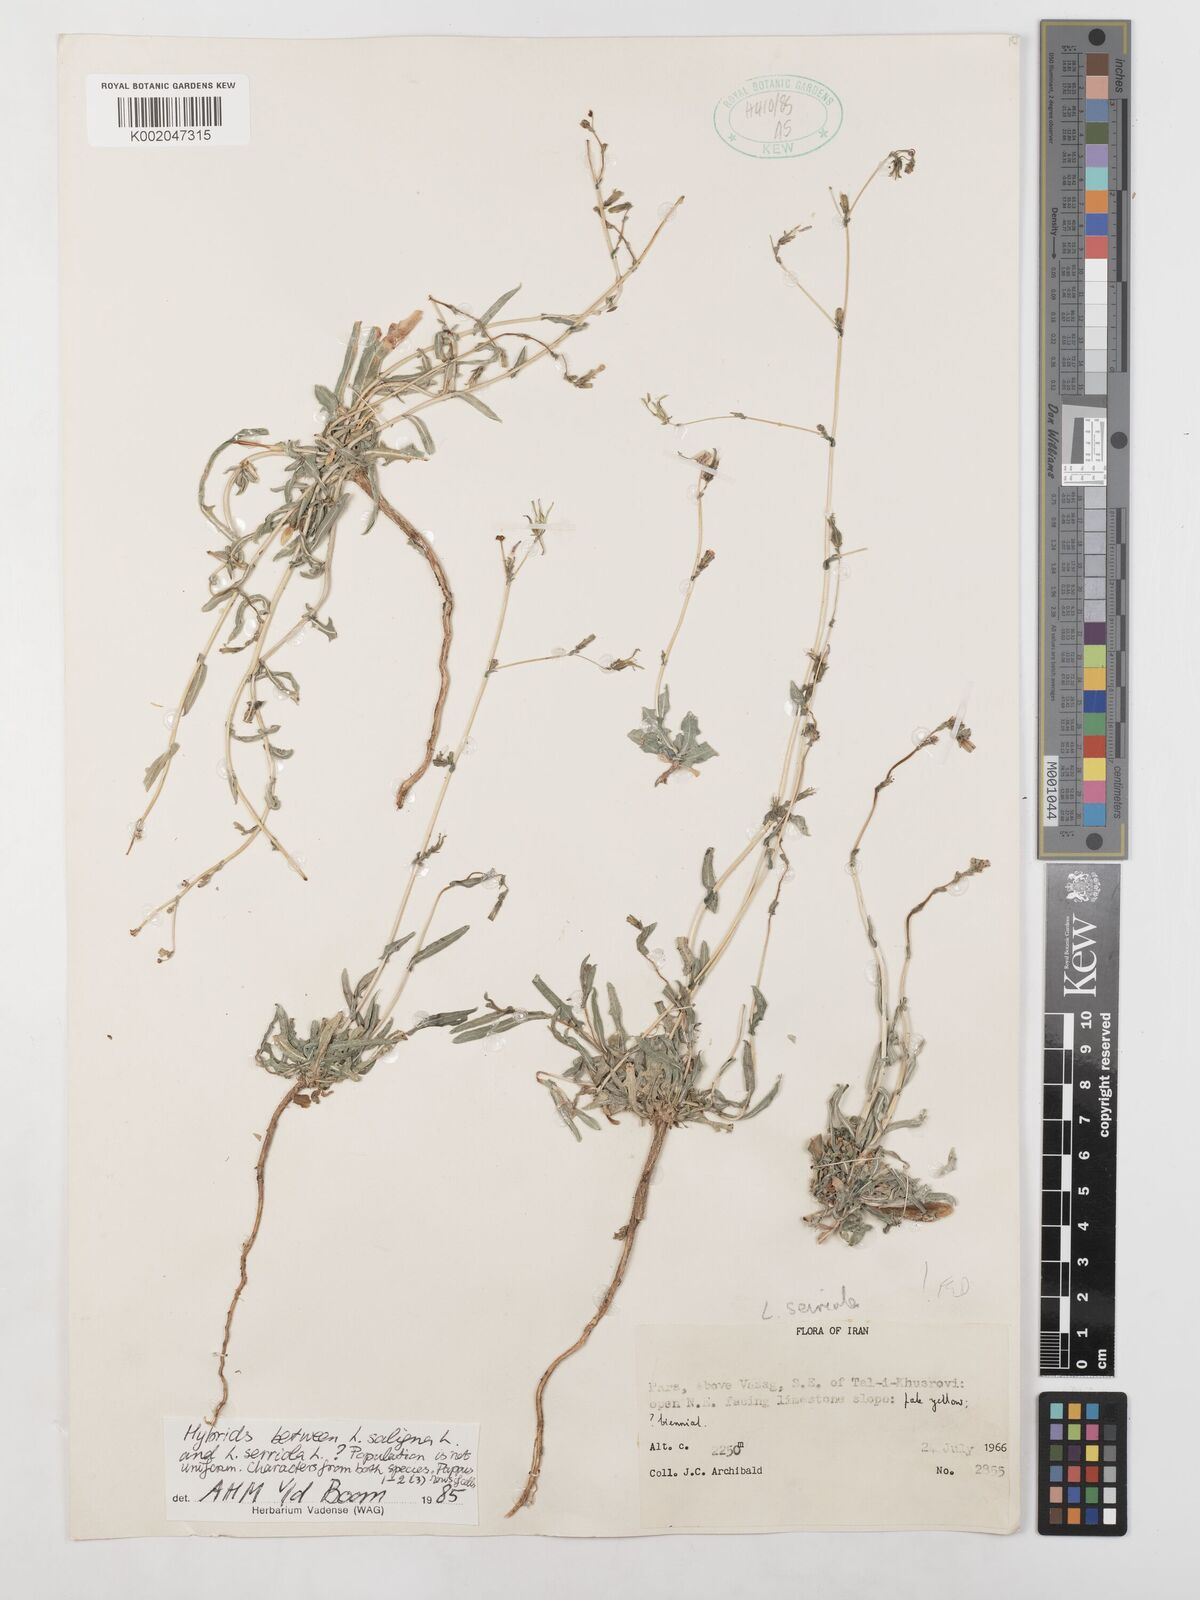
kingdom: Plantae
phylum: Tracheophyta
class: Magnoliopsida
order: Asterales
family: Asteraceae
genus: Lactuca
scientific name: Lactuca saligna
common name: Wild lettuce
